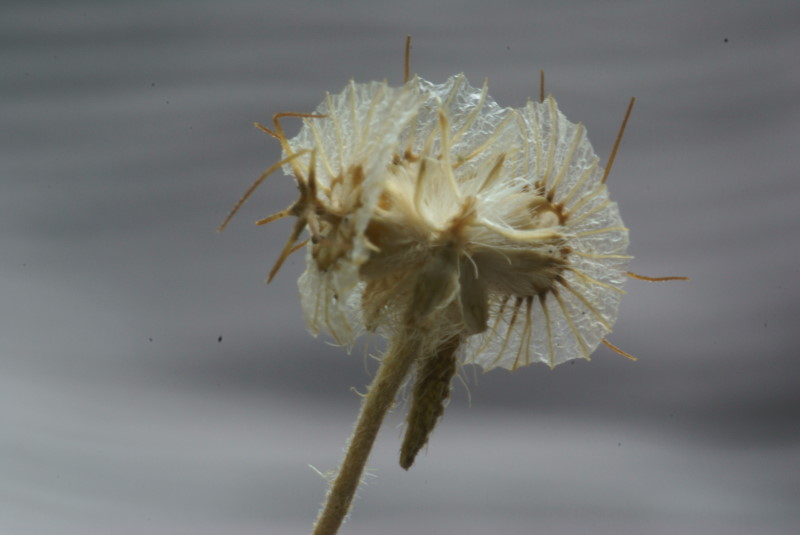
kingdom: Plantae
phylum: Tracheophyta
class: Magnoliopsida
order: Dipsacales
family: Caprifoliaceae
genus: Scabiosa
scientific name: Scabiosa
